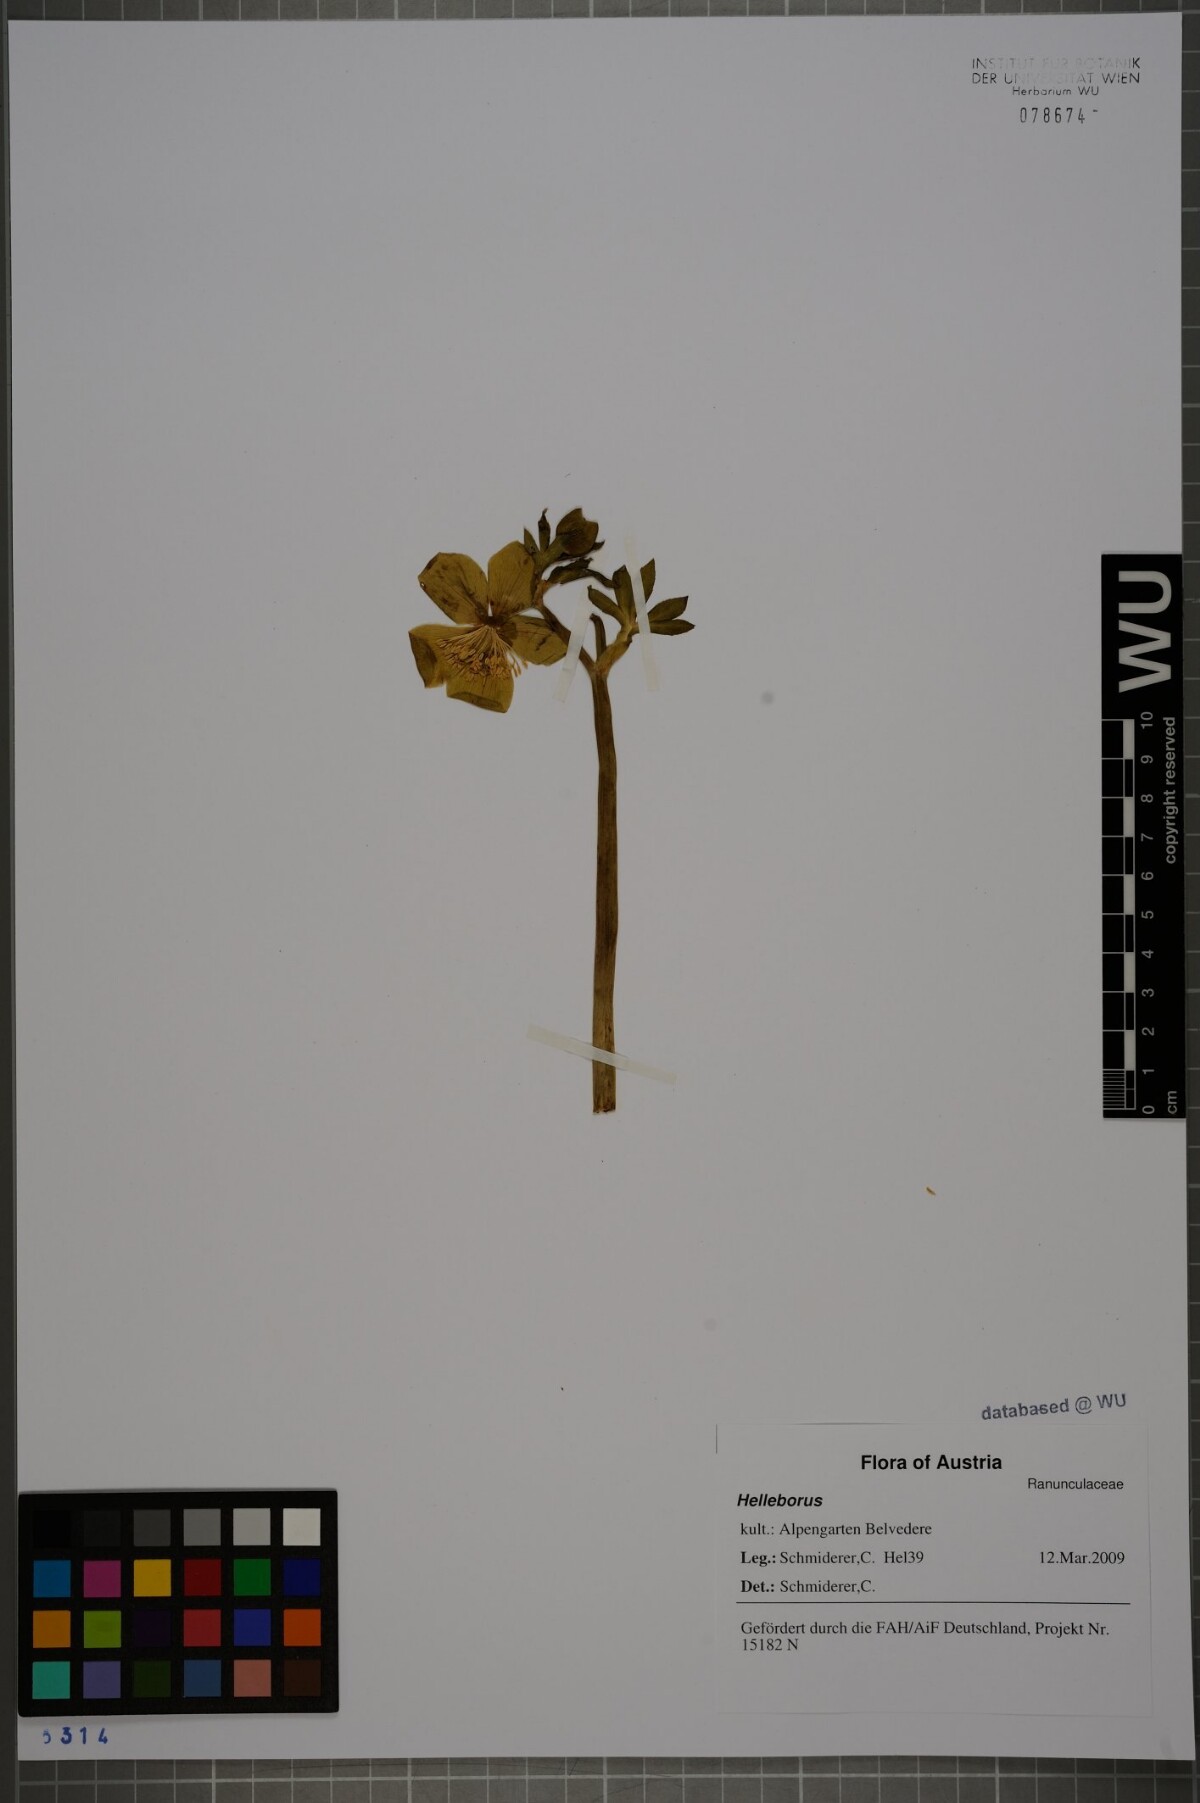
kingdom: Plantae
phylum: Tracheophyta
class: Magnoliopsida
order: Ranunculales
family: Ranunculaceae
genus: Helleborus
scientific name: Helleborus
